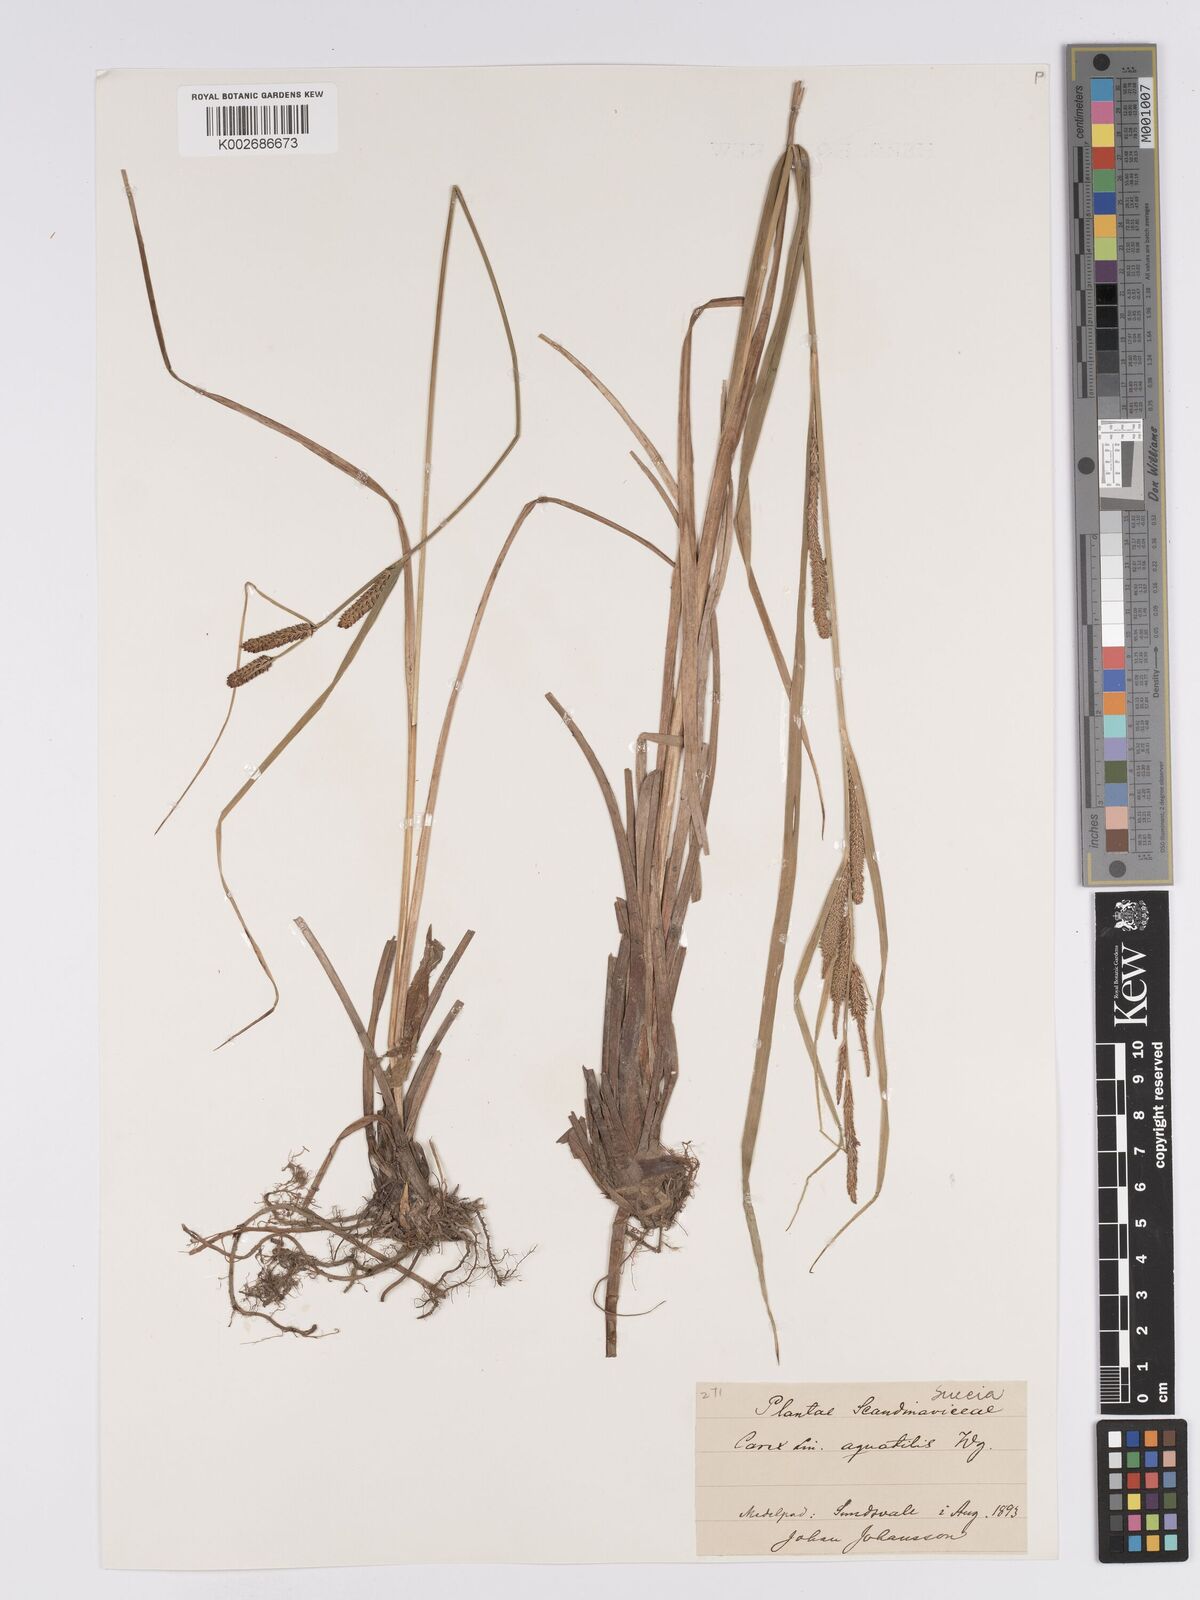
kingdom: Plantae
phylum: Tracheophyta
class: Liliopsida
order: Poales
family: Cyperaceae
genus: Carex
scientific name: Carex aquatilis
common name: Water sedge
